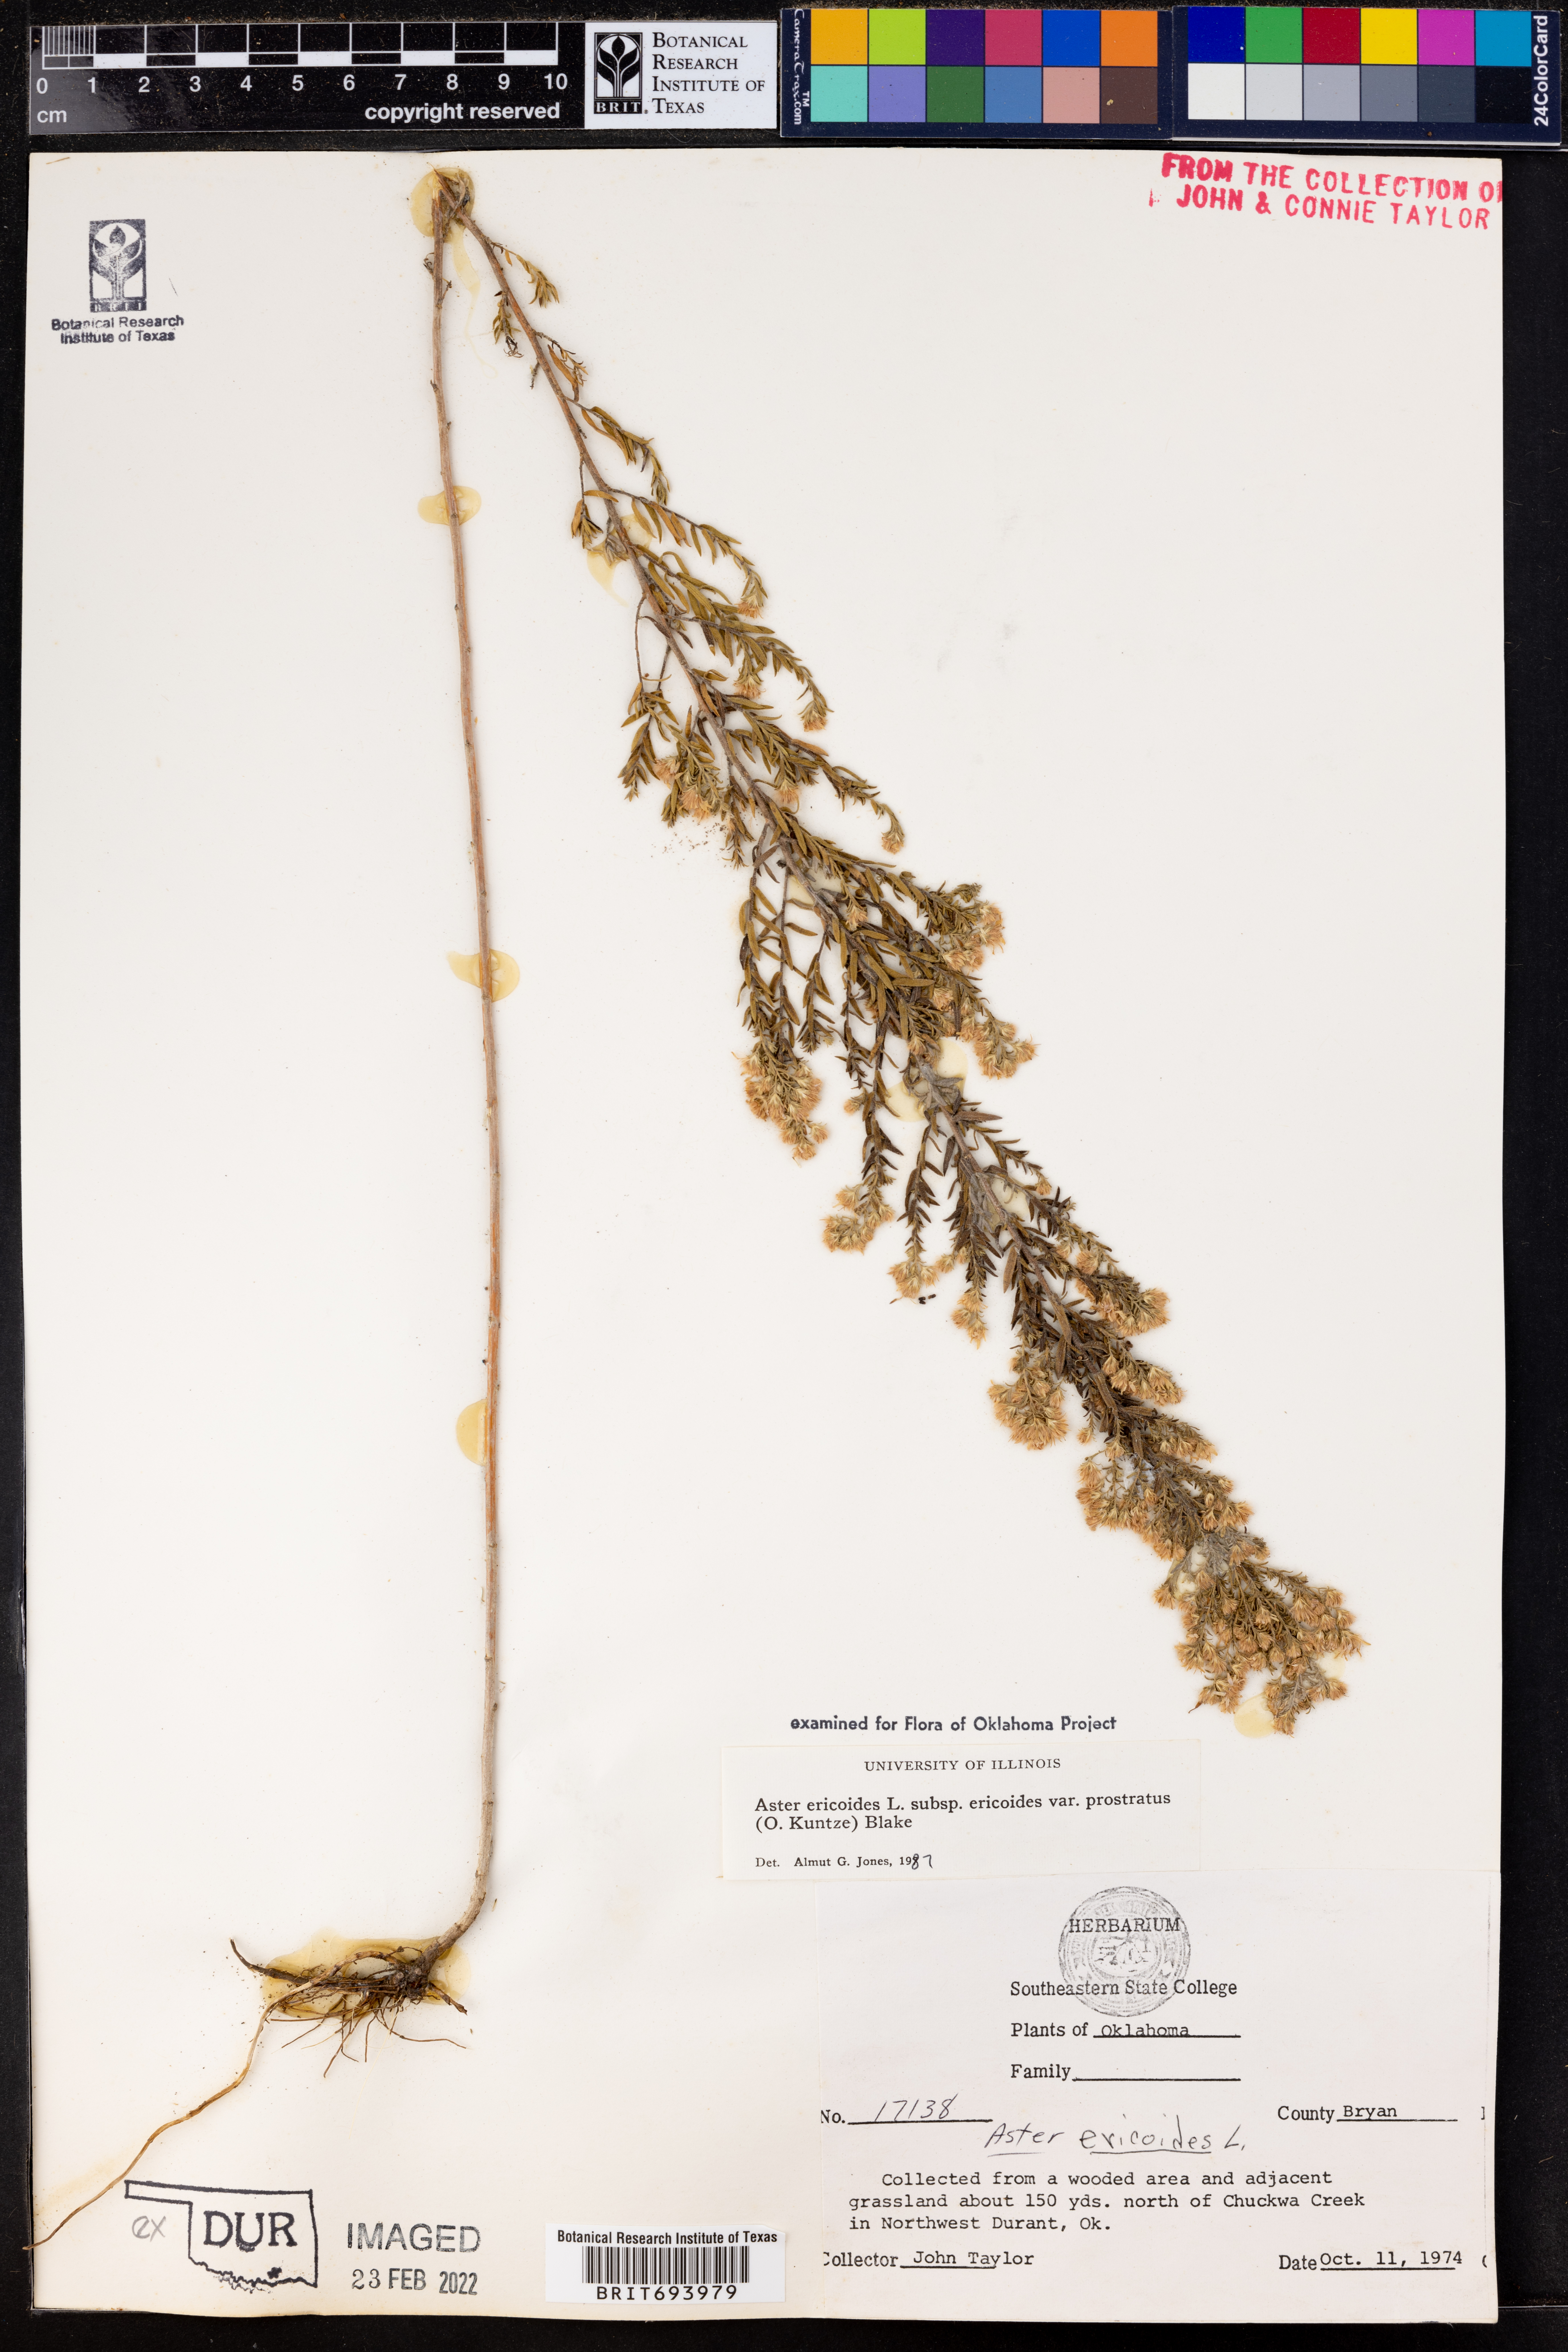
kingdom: Plantae
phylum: Tracheophyta
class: Magnoliopsida
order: Asterales
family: Asteraceae
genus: Symphyotrichum
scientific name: Symphyotrichum ericoides
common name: Heath aster
